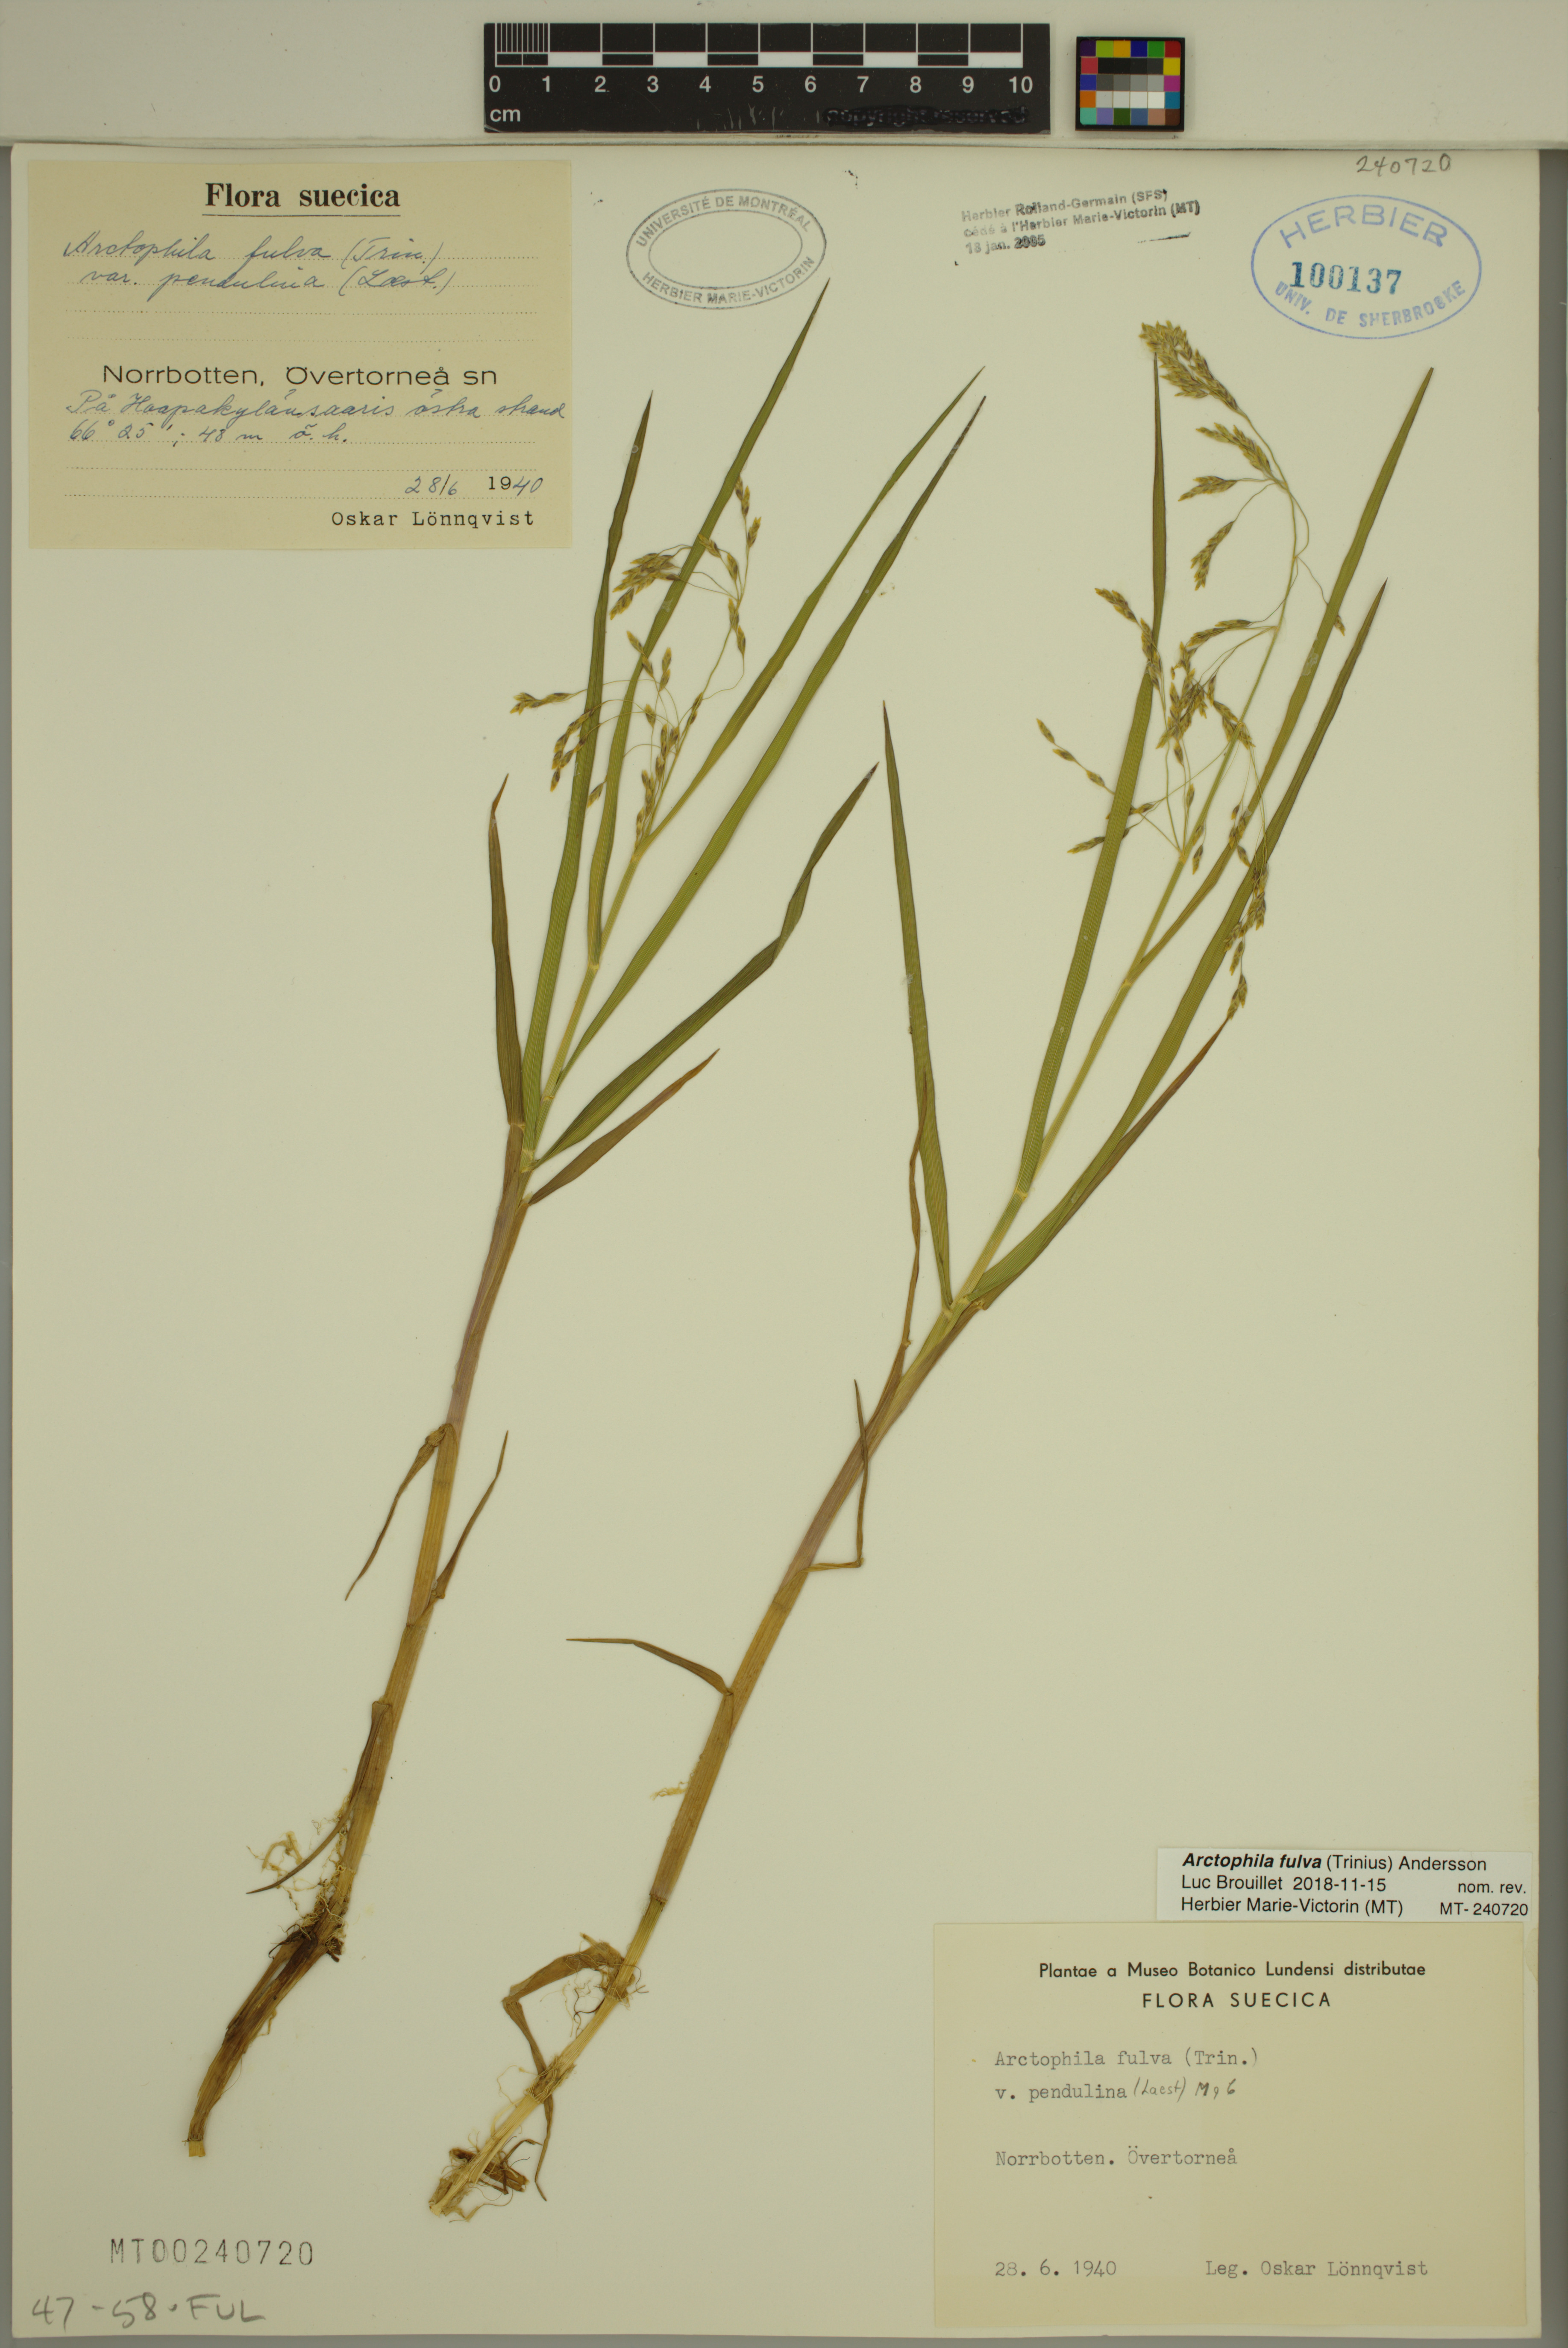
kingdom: Plantae
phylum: Tracheophyta
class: Liliopsida
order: Poales
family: Poaceae
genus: Dupontia
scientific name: Dupontia fulva
